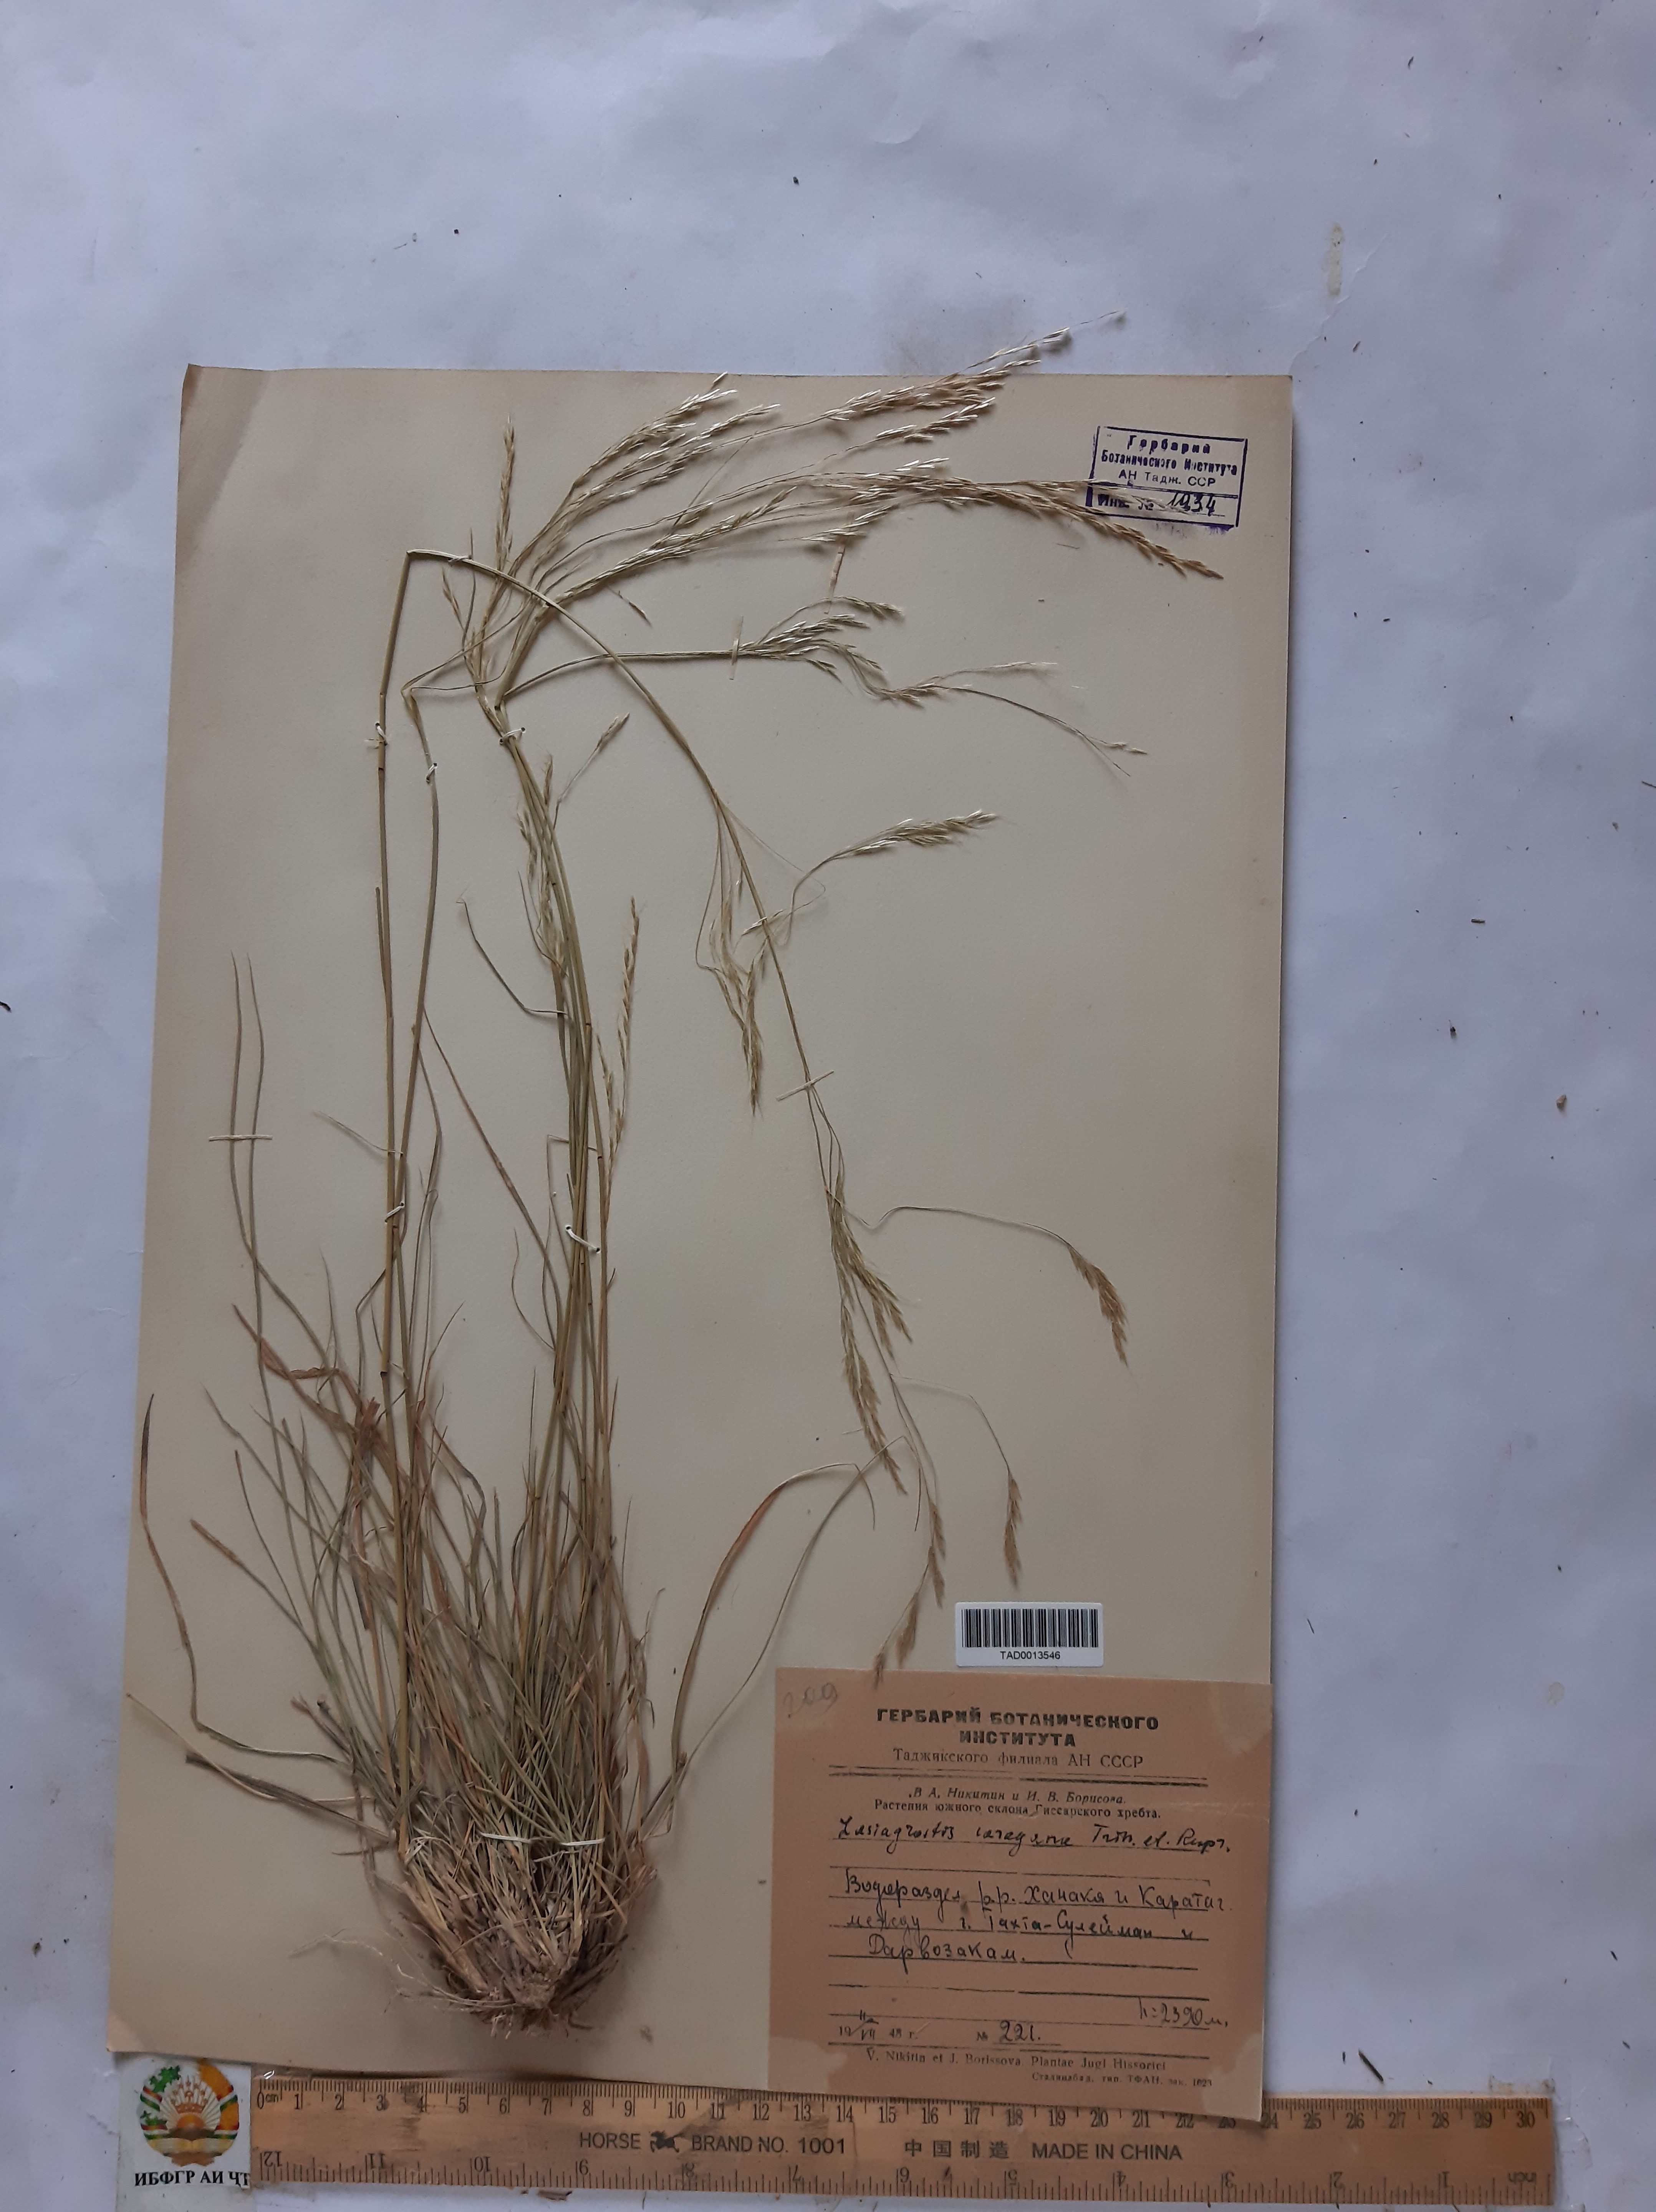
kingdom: Plantae
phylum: Tracheophyta
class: Liliopsida
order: Poales
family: Poaceae
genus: Stipa
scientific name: Stipa conferta
